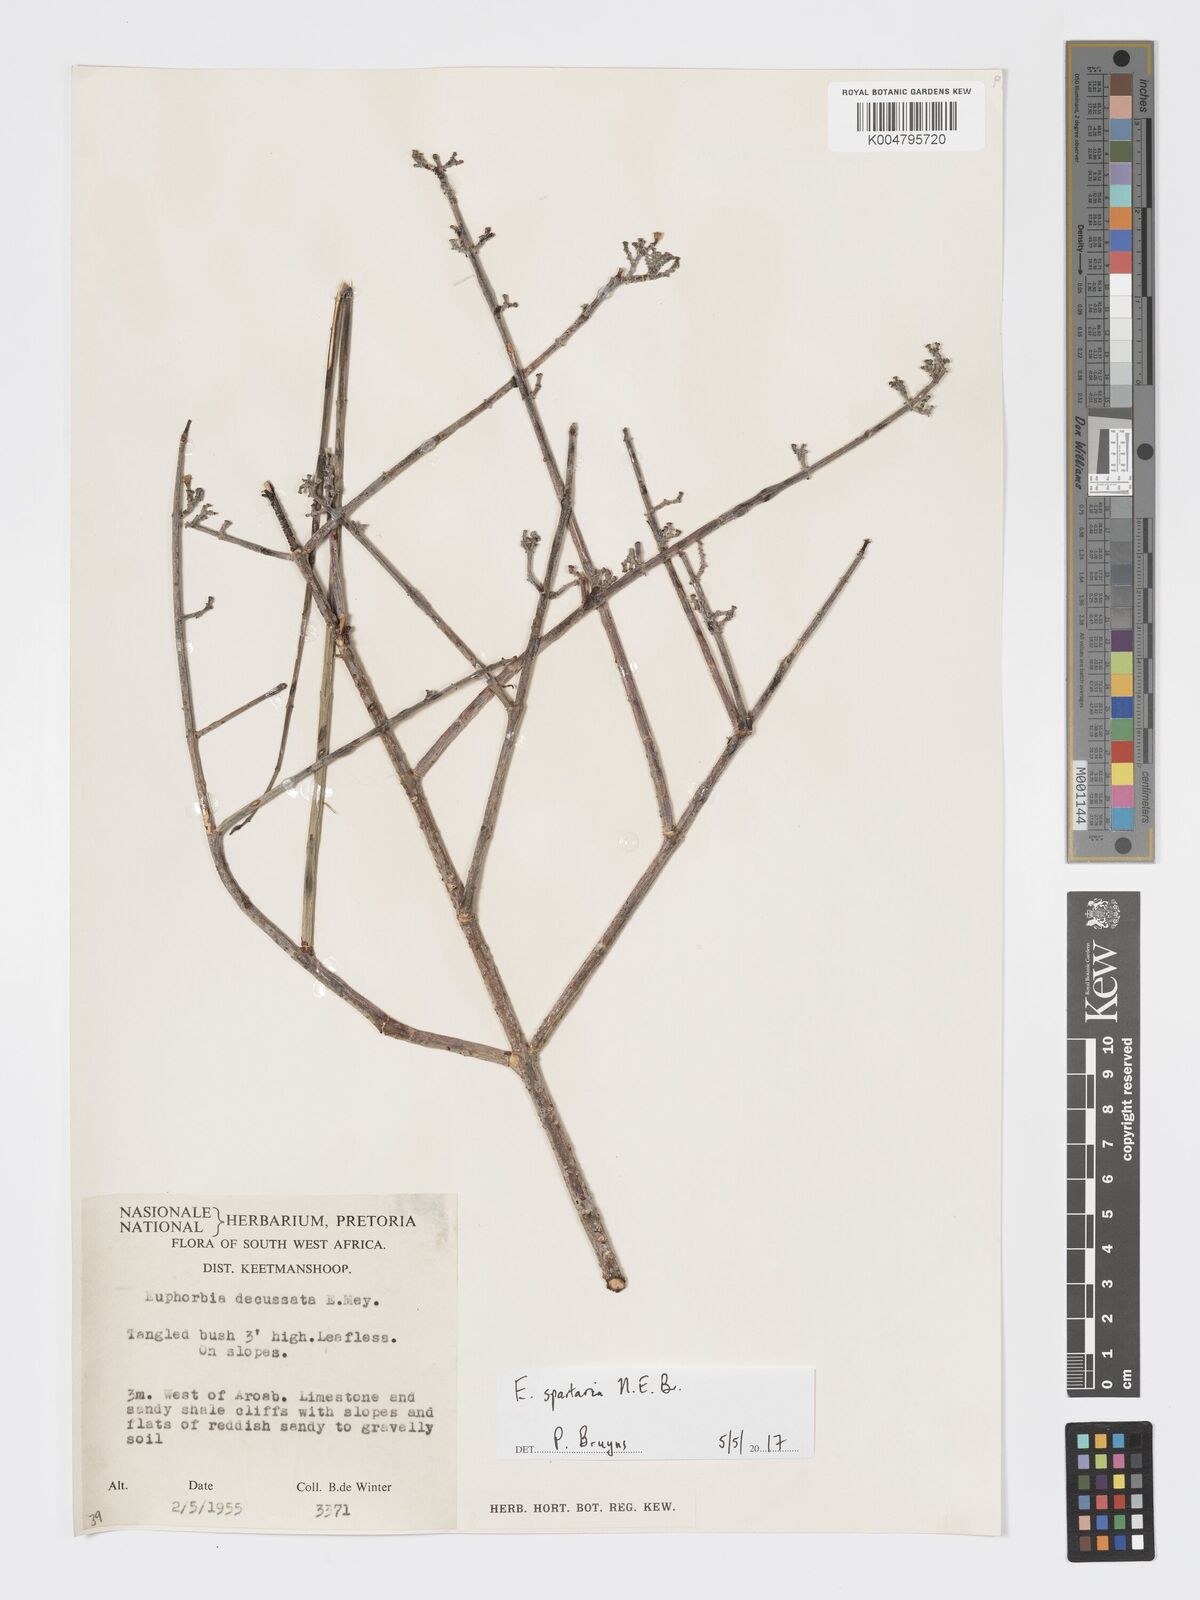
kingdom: Plantae
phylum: Tracheophyta
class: Magnoliopsida
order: Malpighiales
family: Euphorbiaceae
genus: Euphorbia
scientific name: Euphorbia spartaria
